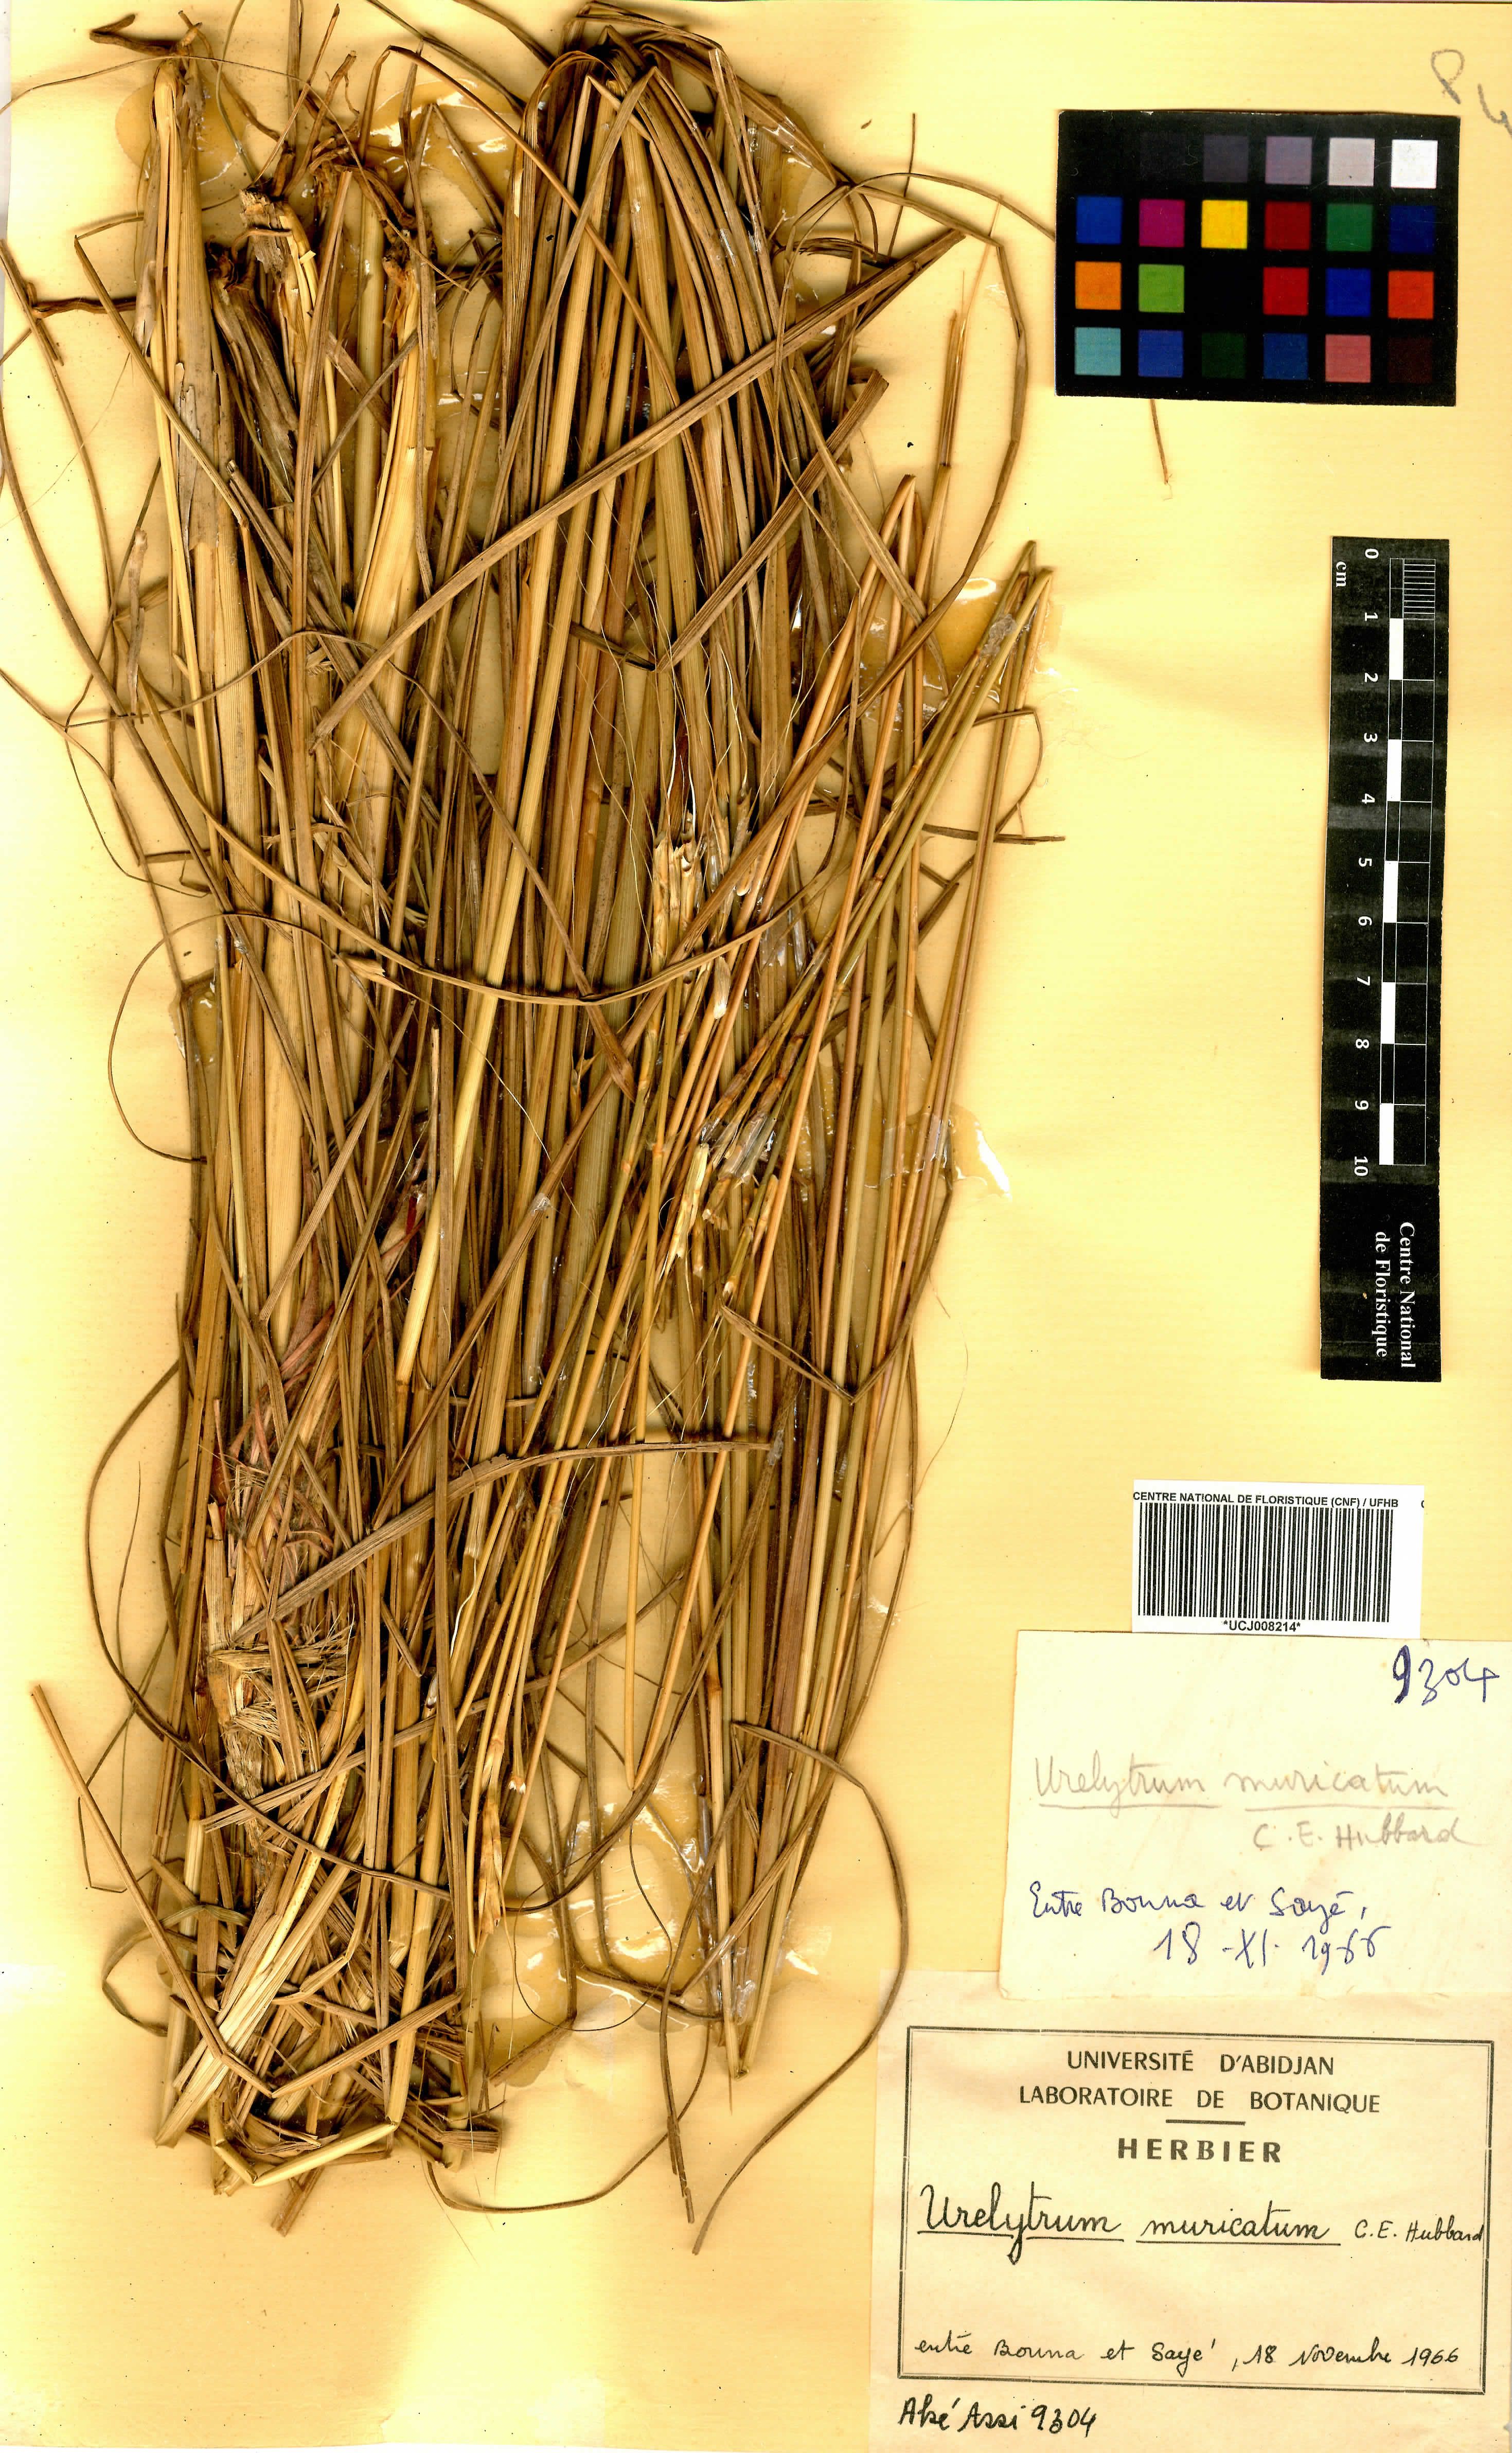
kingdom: Plantae
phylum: Tracheophyta
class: Liliopsida
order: Poales
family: Poaceae
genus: Urelytrum
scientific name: Urelytrum muricatum
